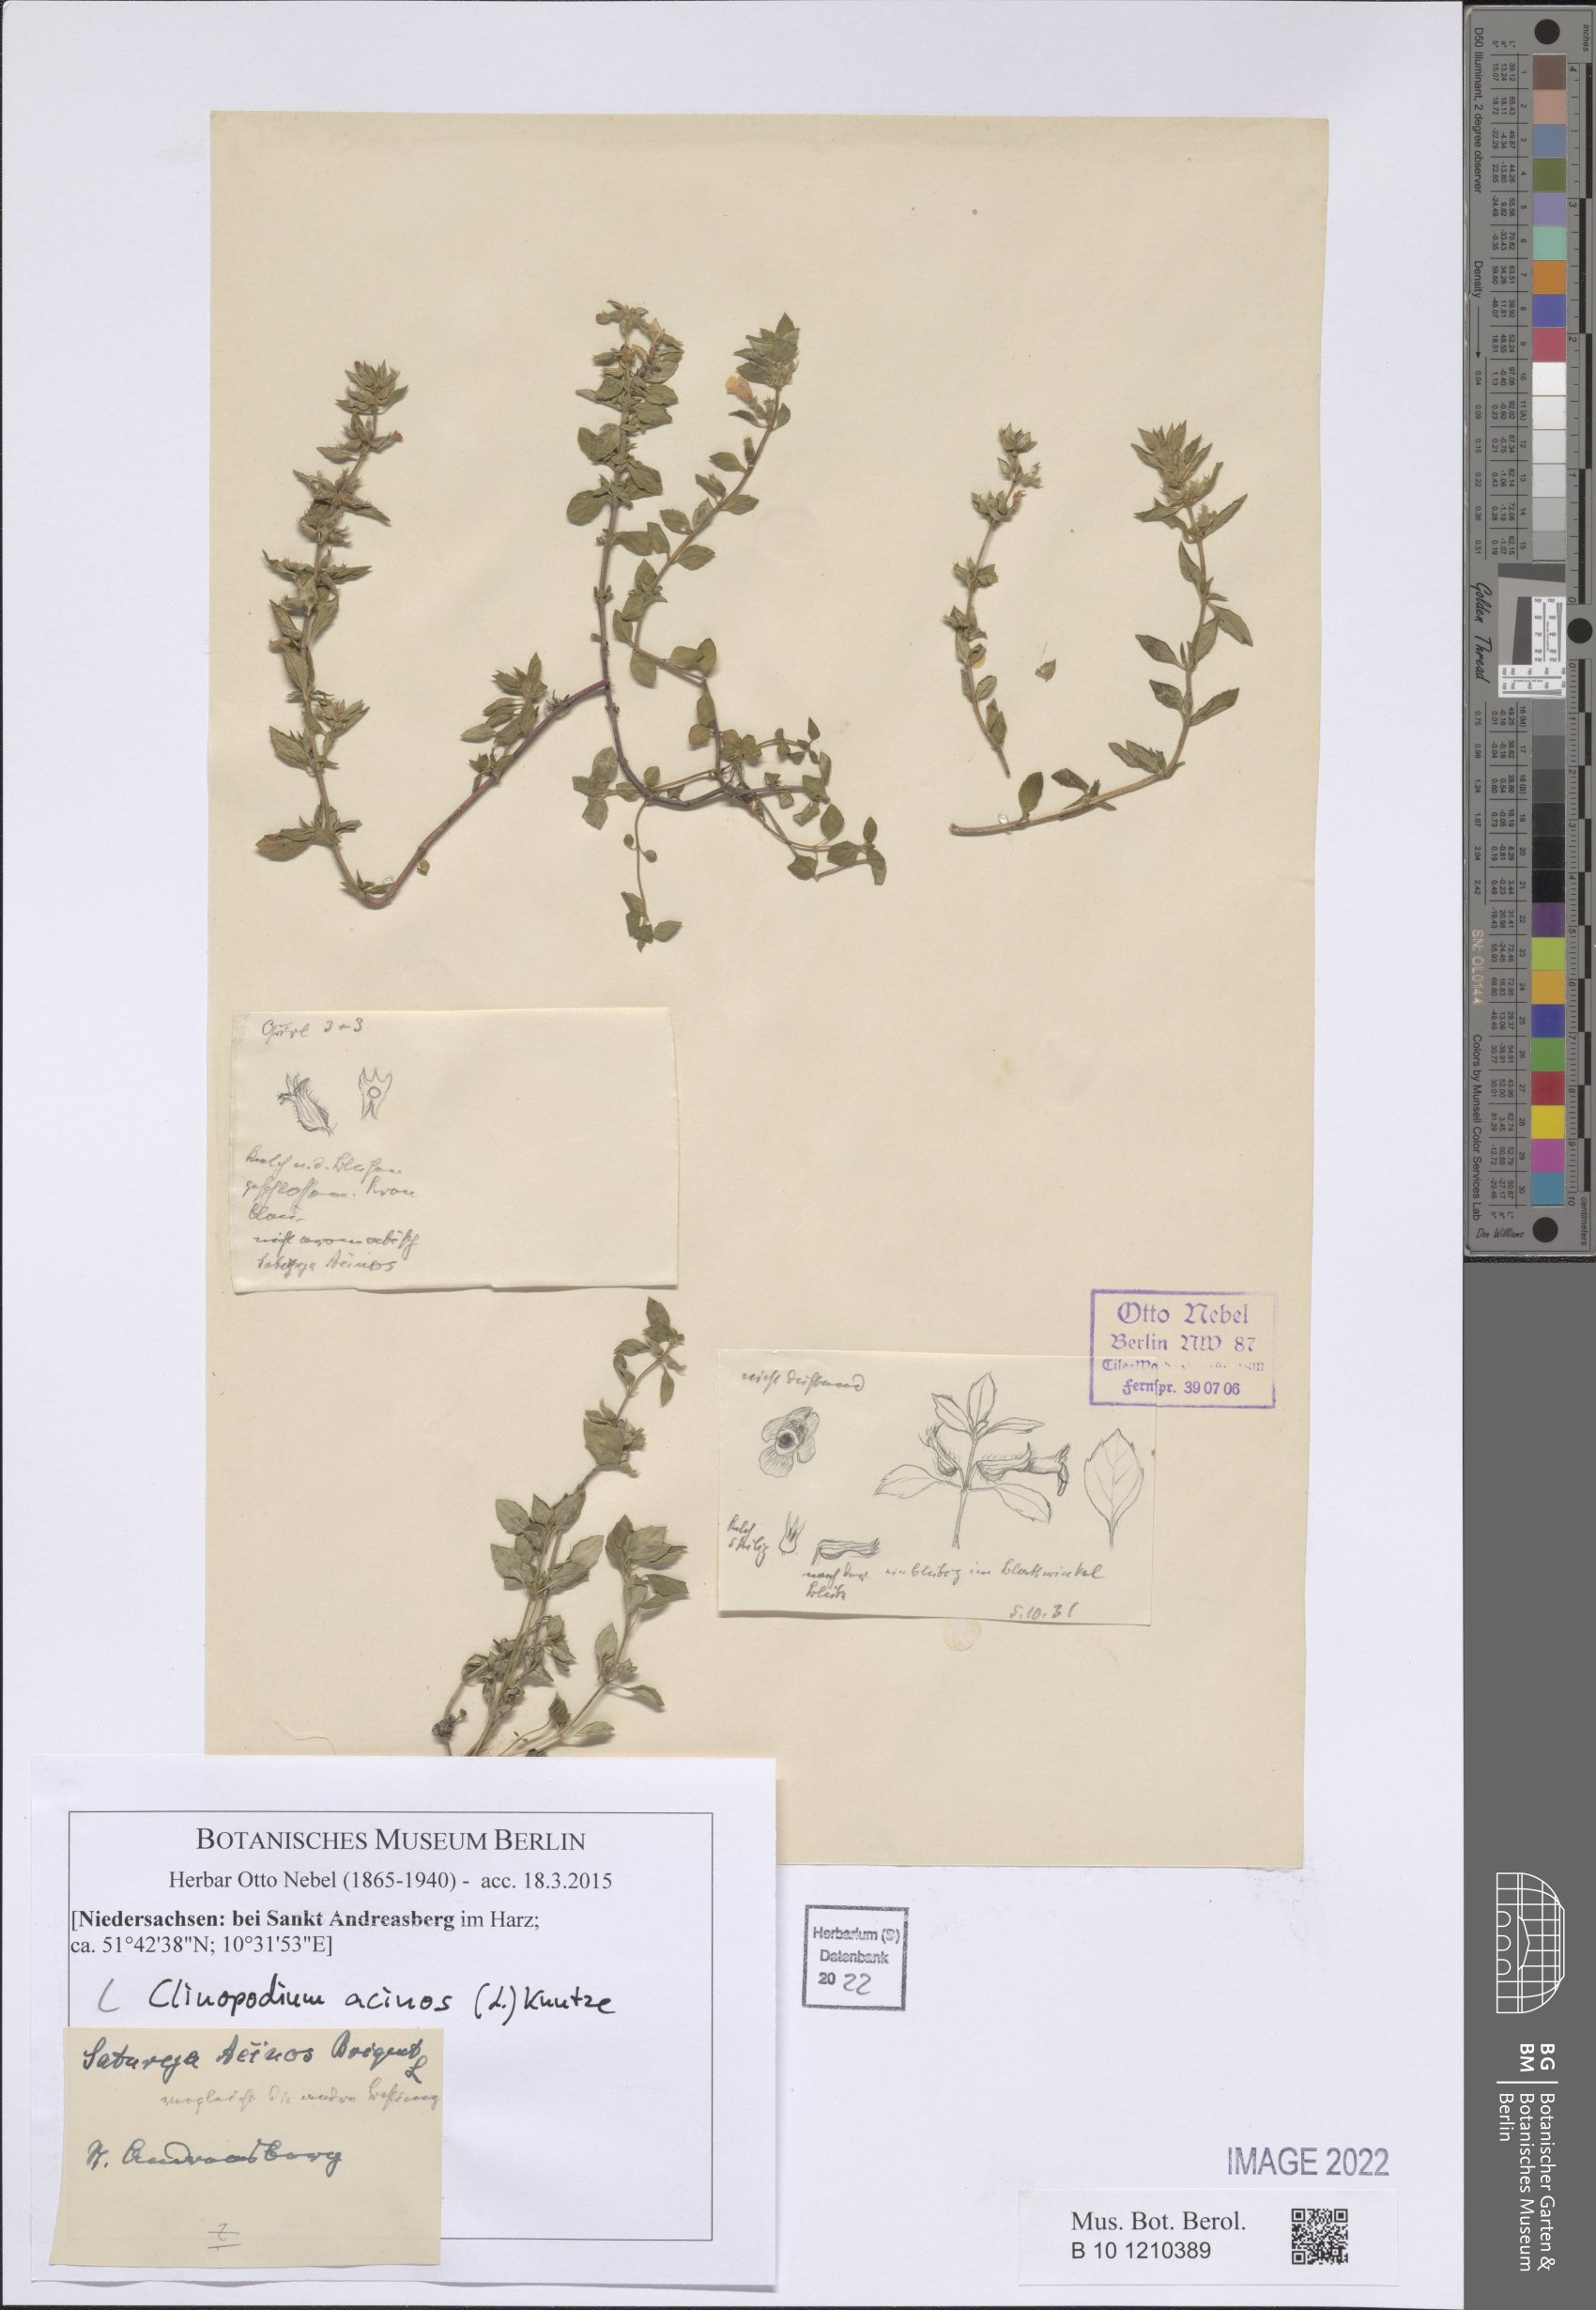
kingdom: Plantae
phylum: Tracheophyta
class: Magnoliopsida
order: Lamiales
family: Lamiaceae
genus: Clinopodium
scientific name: Clinopodium acinos
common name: Basil thyme
